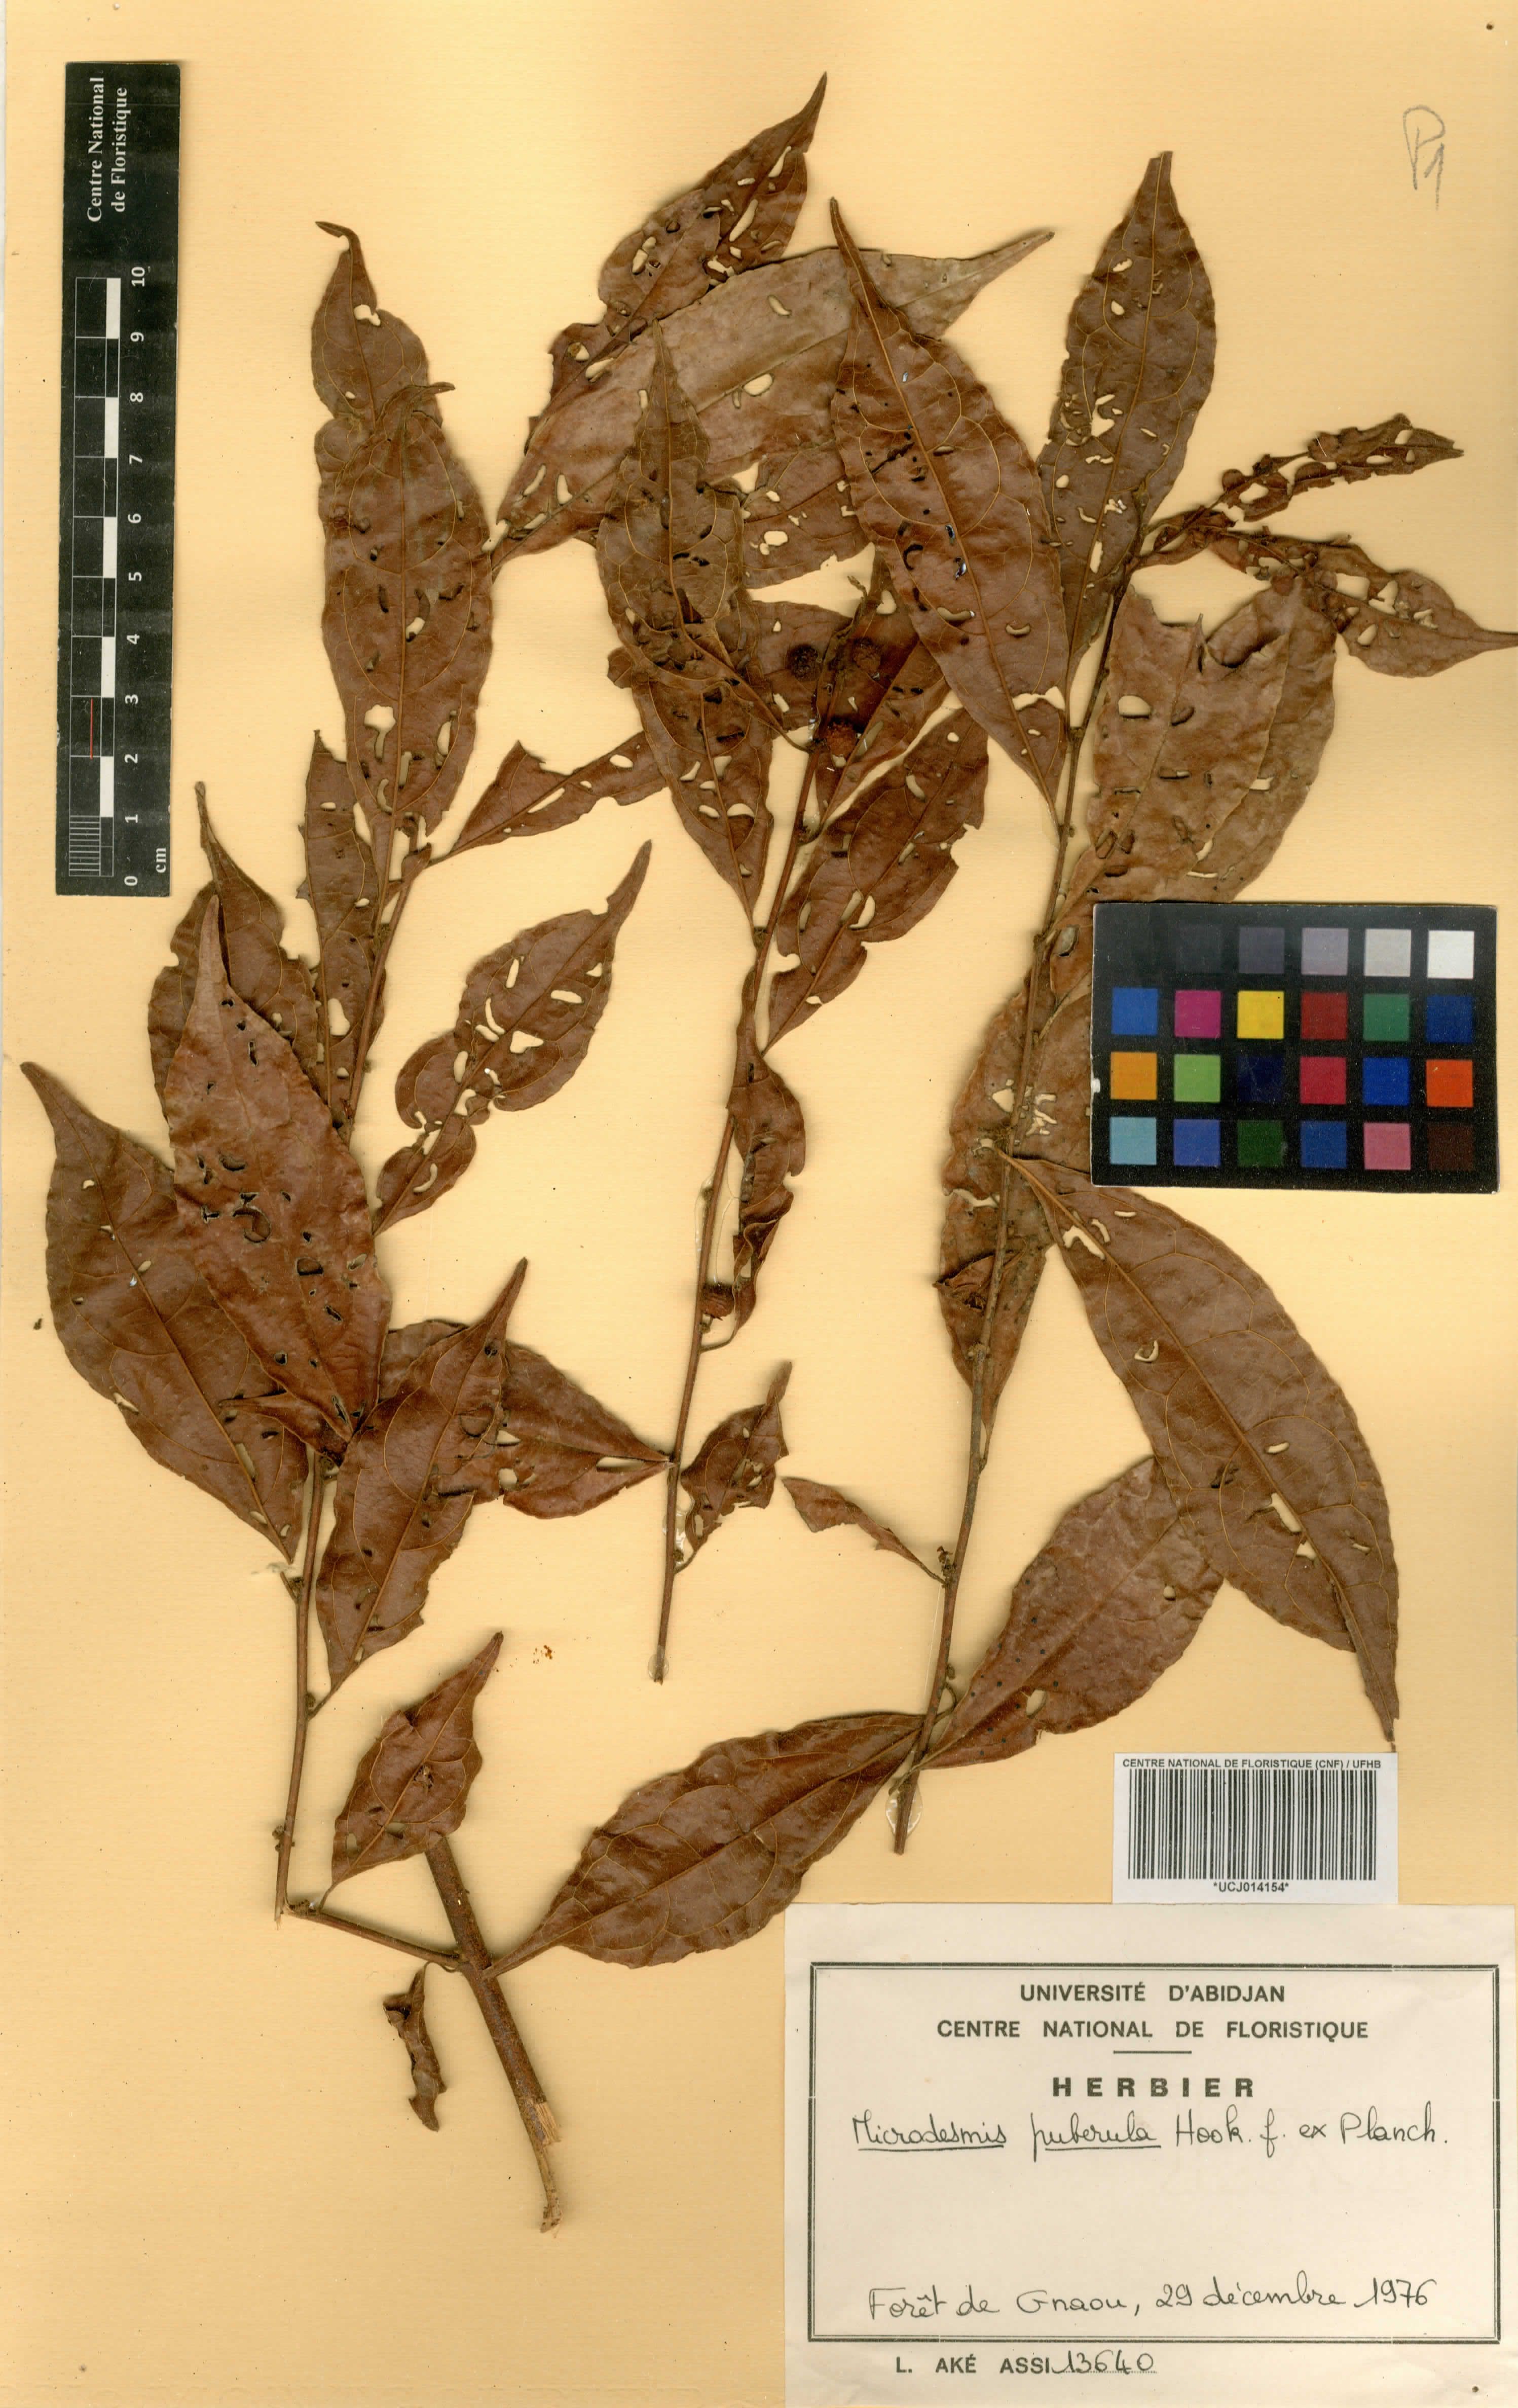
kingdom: Plantae
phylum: Tracheophyta
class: Magnoliopsida
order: Malpighiales
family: Pandaceae
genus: Microdesmis
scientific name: Microdesmis puberula
